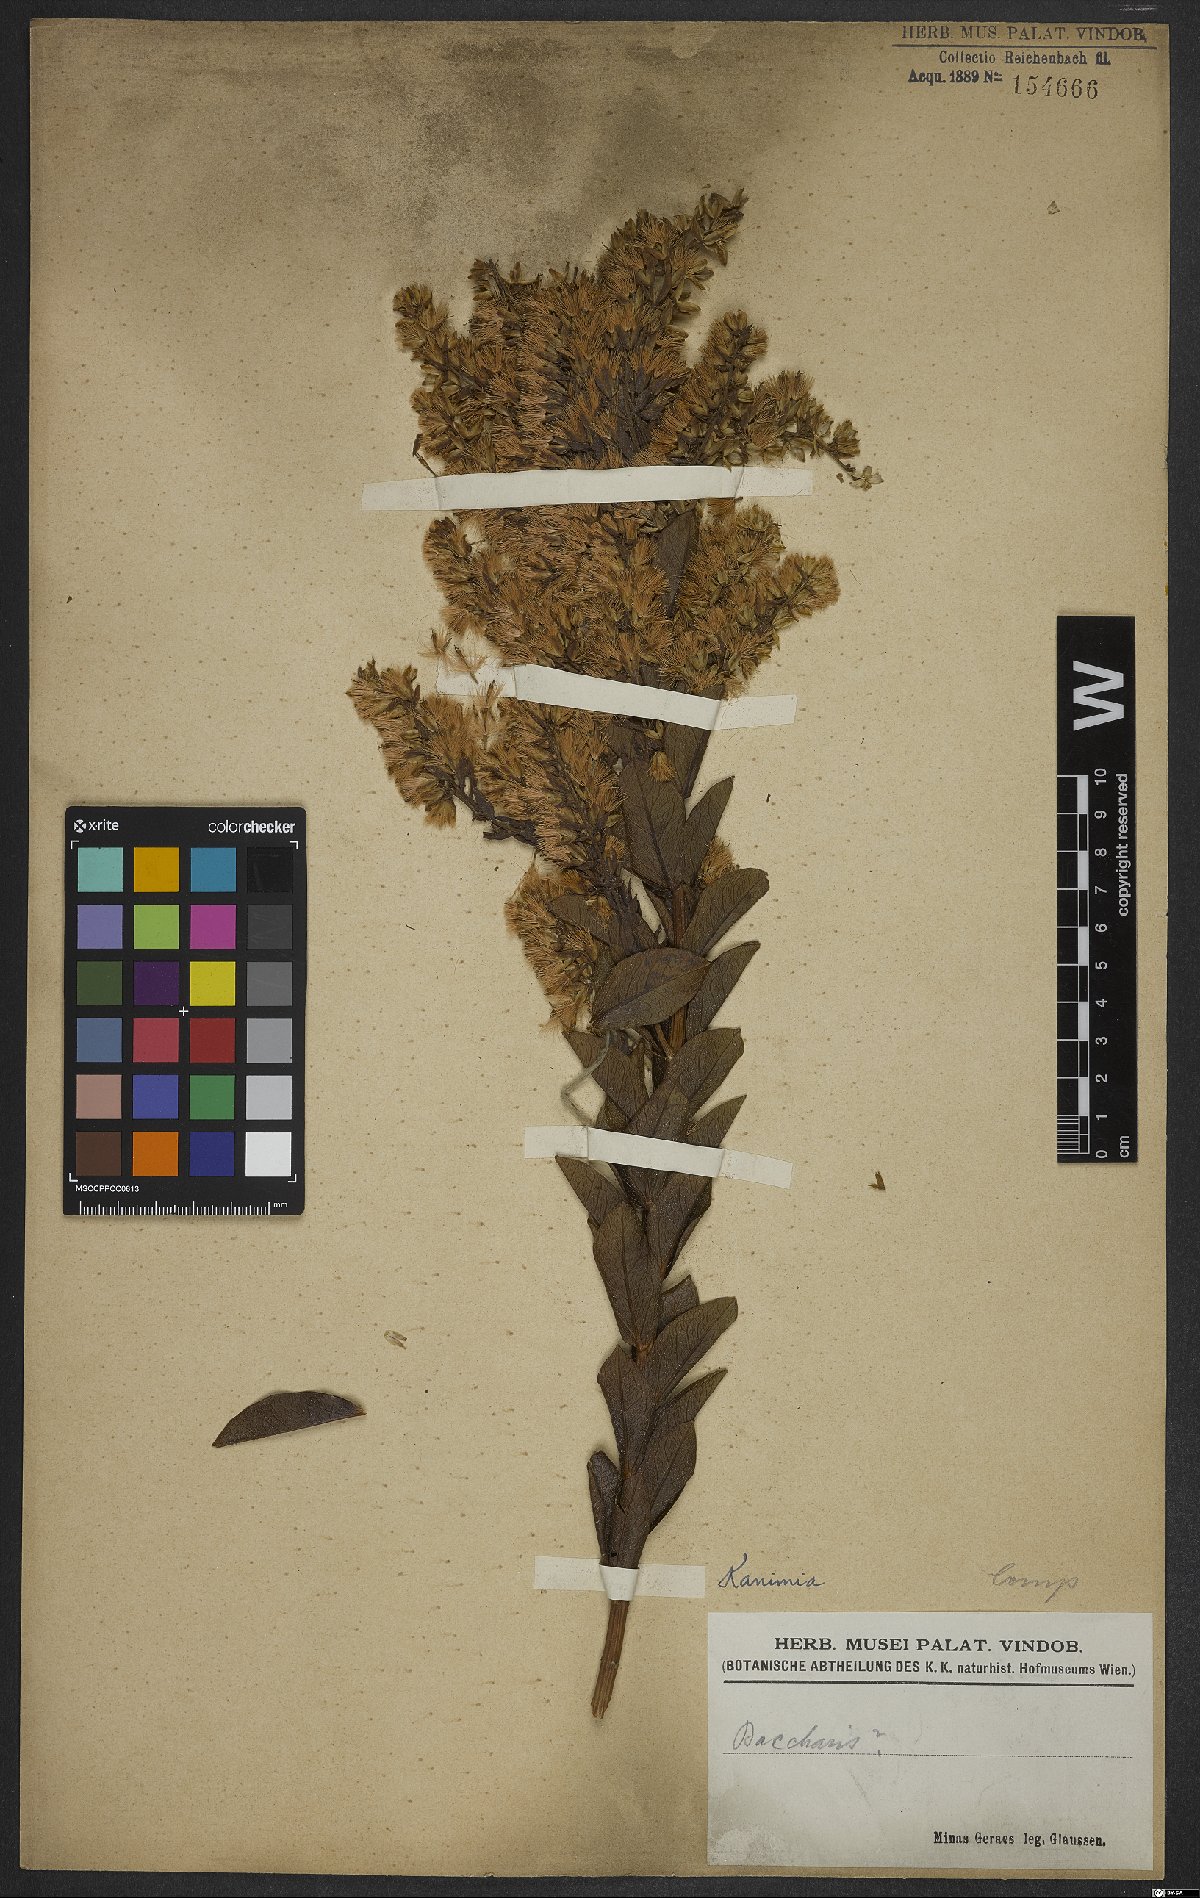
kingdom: Plantae
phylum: Tracheophyta
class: Magnoliopsida
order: Asterales
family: Asteraceae
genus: Mikania
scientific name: Mikania oblongifolia
